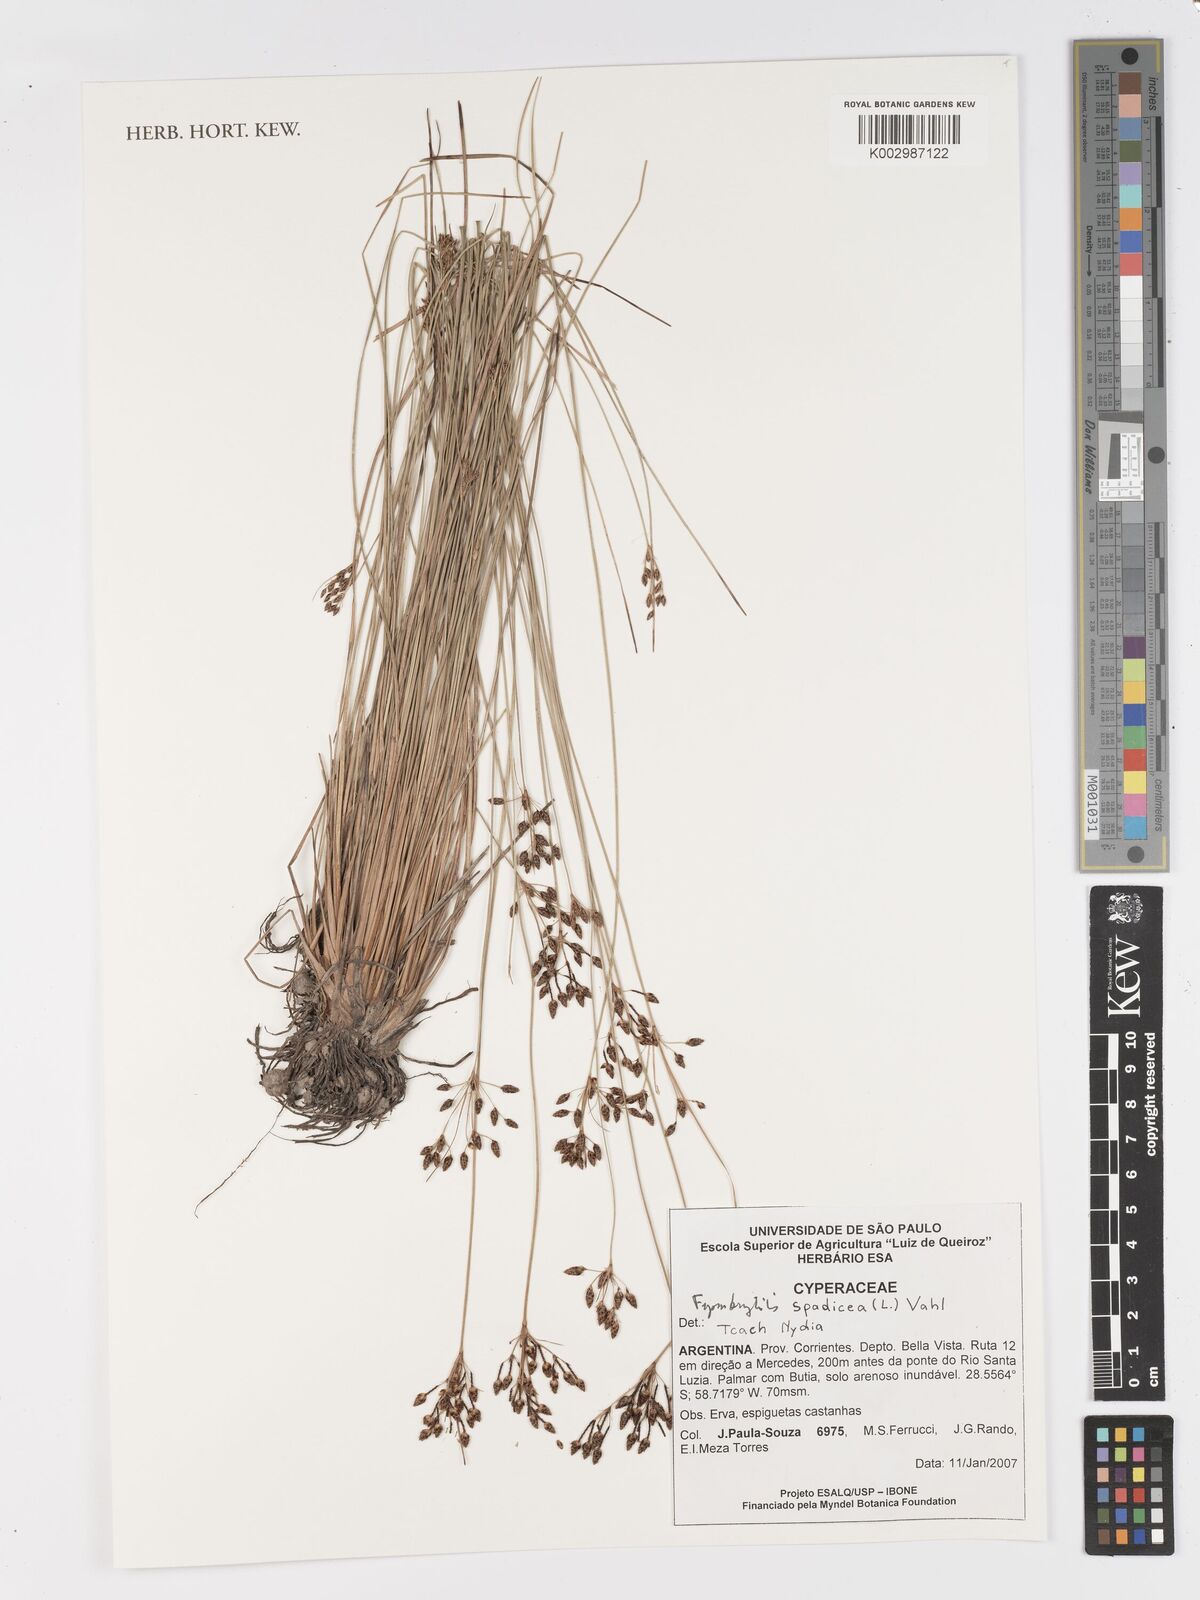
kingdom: Plantae
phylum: Tracheophyta
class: Liliopsida
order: Poales
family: Cyperaceae
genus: Fimbristylis
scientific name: Fimbristylis spadicea
